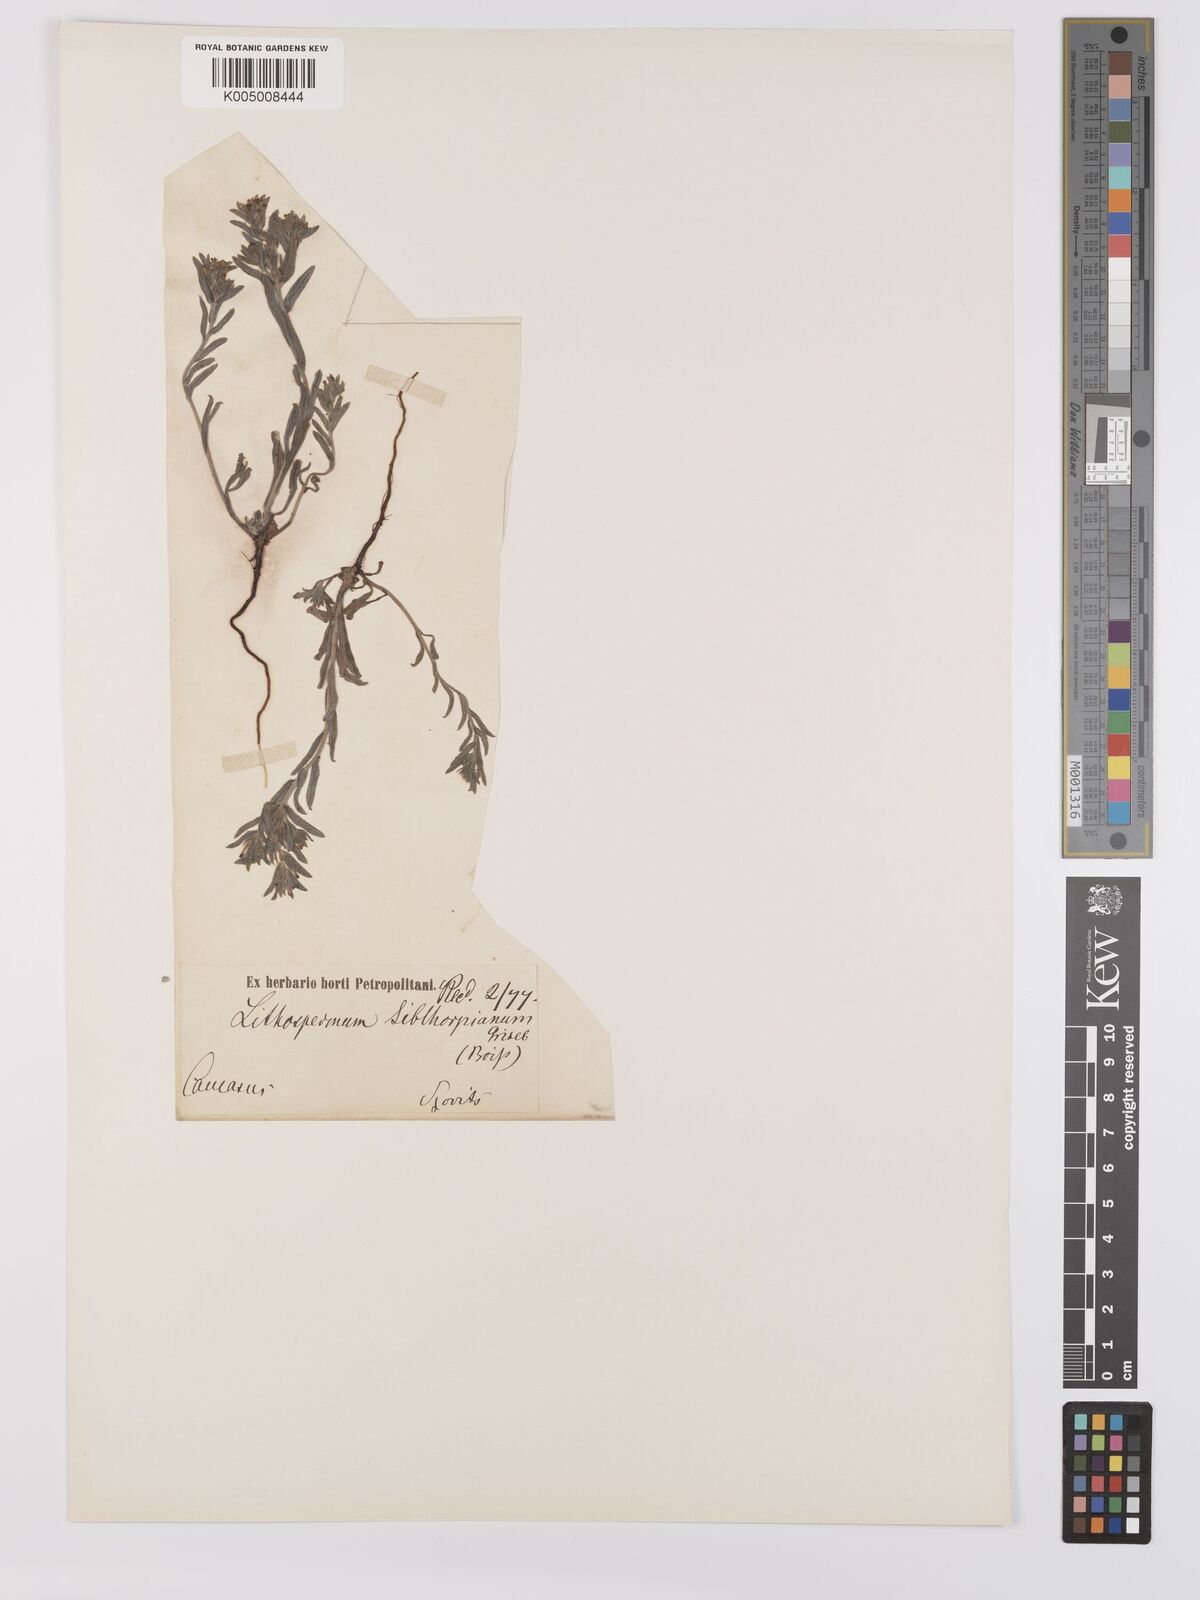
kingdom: Plantae
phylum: Tracheophyta
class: Magnoliopsida
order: Boraginales
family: Boraginaceae
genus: Buglossoides
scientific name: Buglossoides arvensis
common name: Corn gromwell
